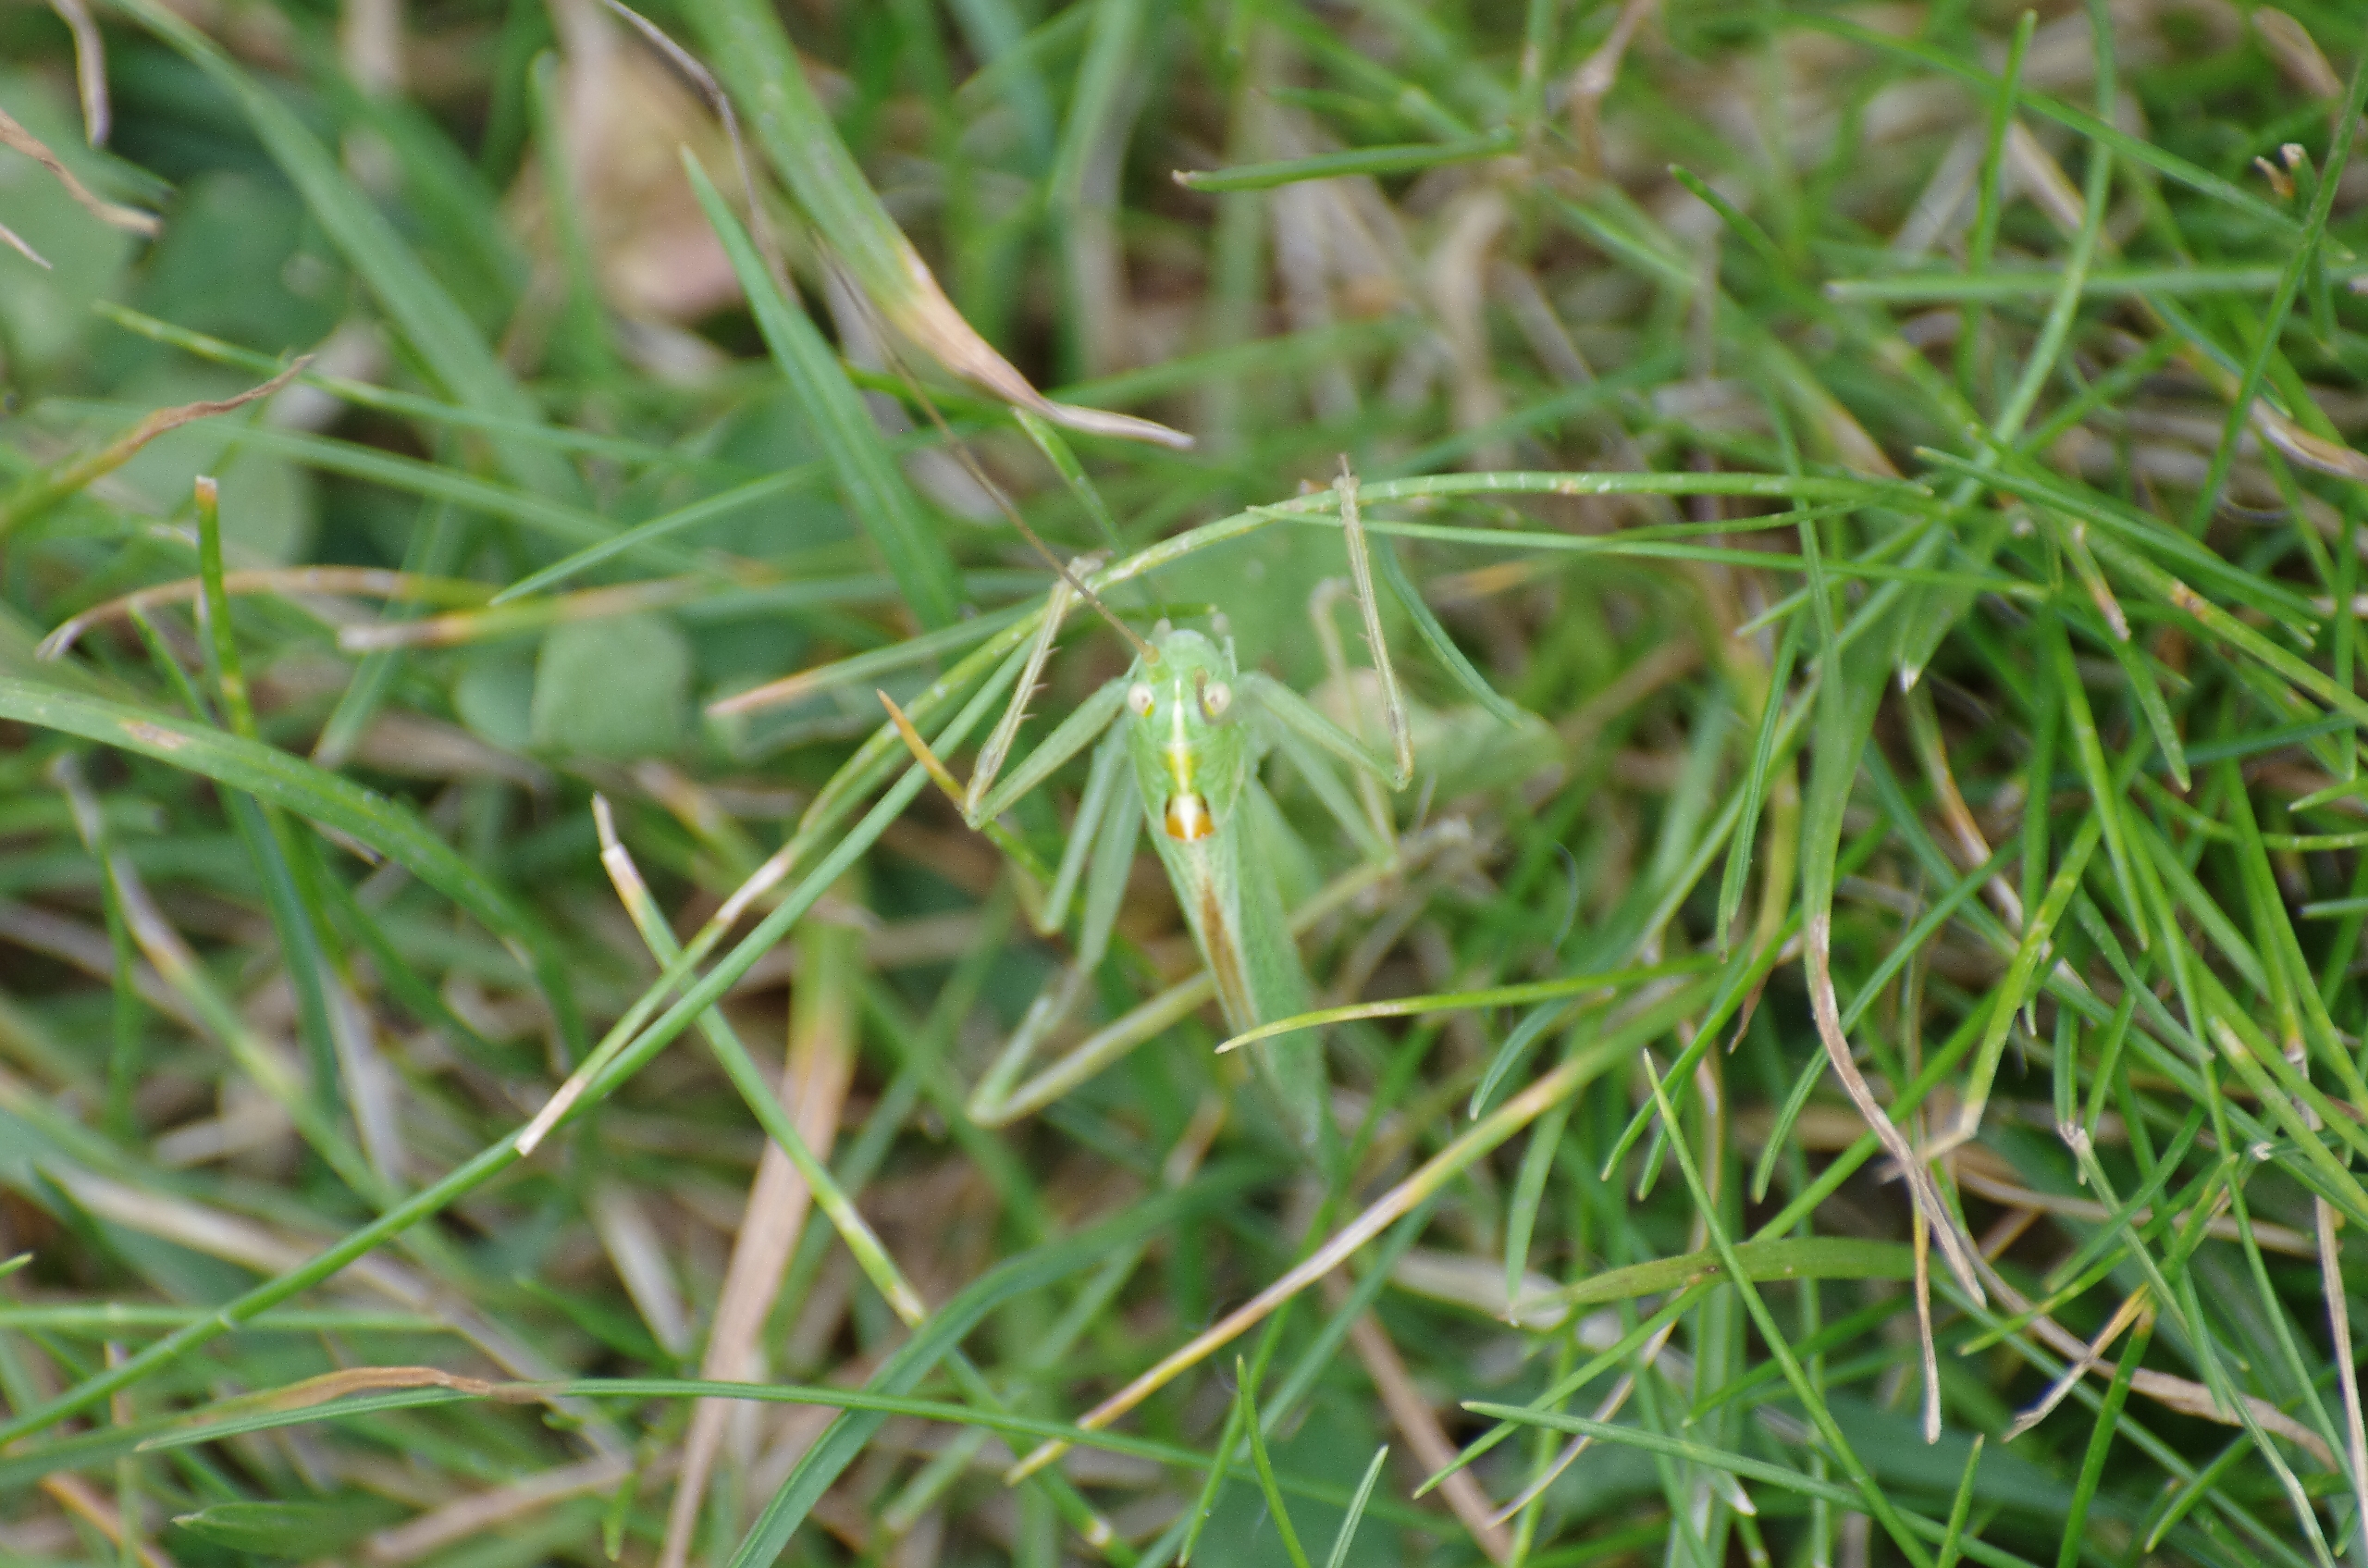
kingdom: Animalia
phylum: Arthropoda
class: Insecta
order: Orthoptera
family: Tettigoniidae
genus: Meconema
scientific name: Meconema thalassinum
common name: Egegræshoppe
